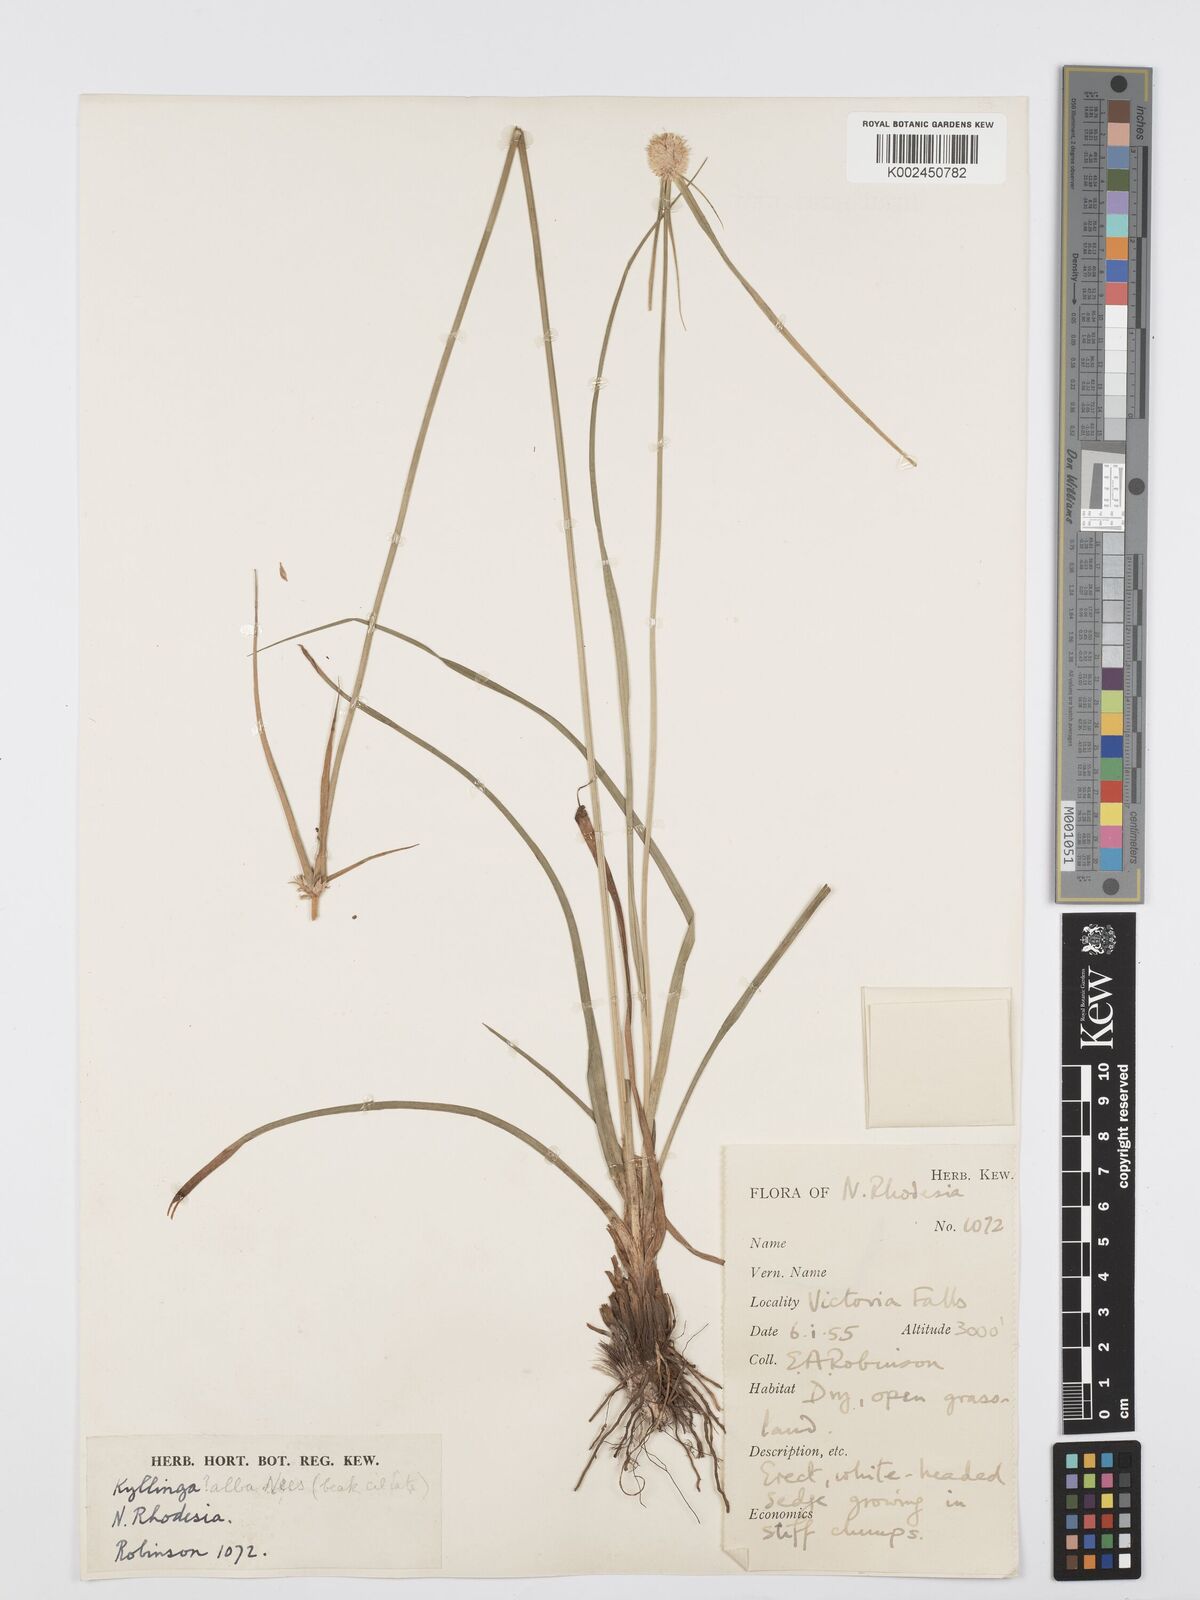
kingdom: Plantae
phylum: Tracheophyta
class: Liliopsida
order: Poales
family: Cyperaceae
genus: Cyperus
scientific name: Cyperus rukwanus
